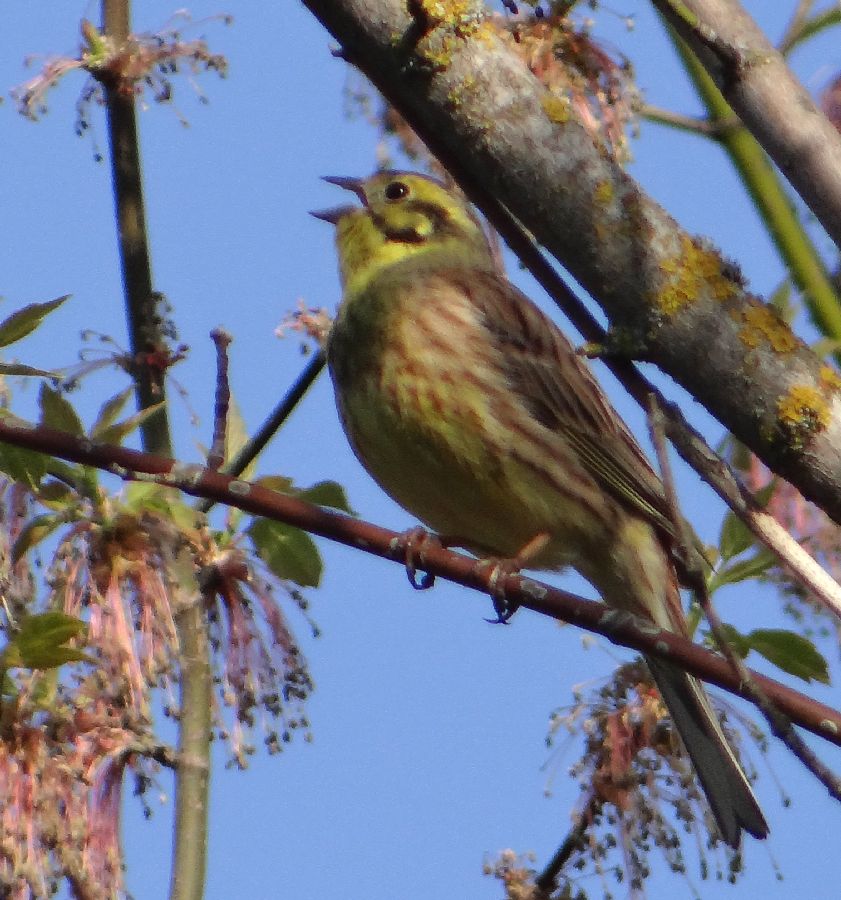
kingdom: Animalia
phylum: Chordata
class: Aves
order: Passeriformes
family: Emberizidae
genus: Emberiza
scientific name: Emberiza citrinella
